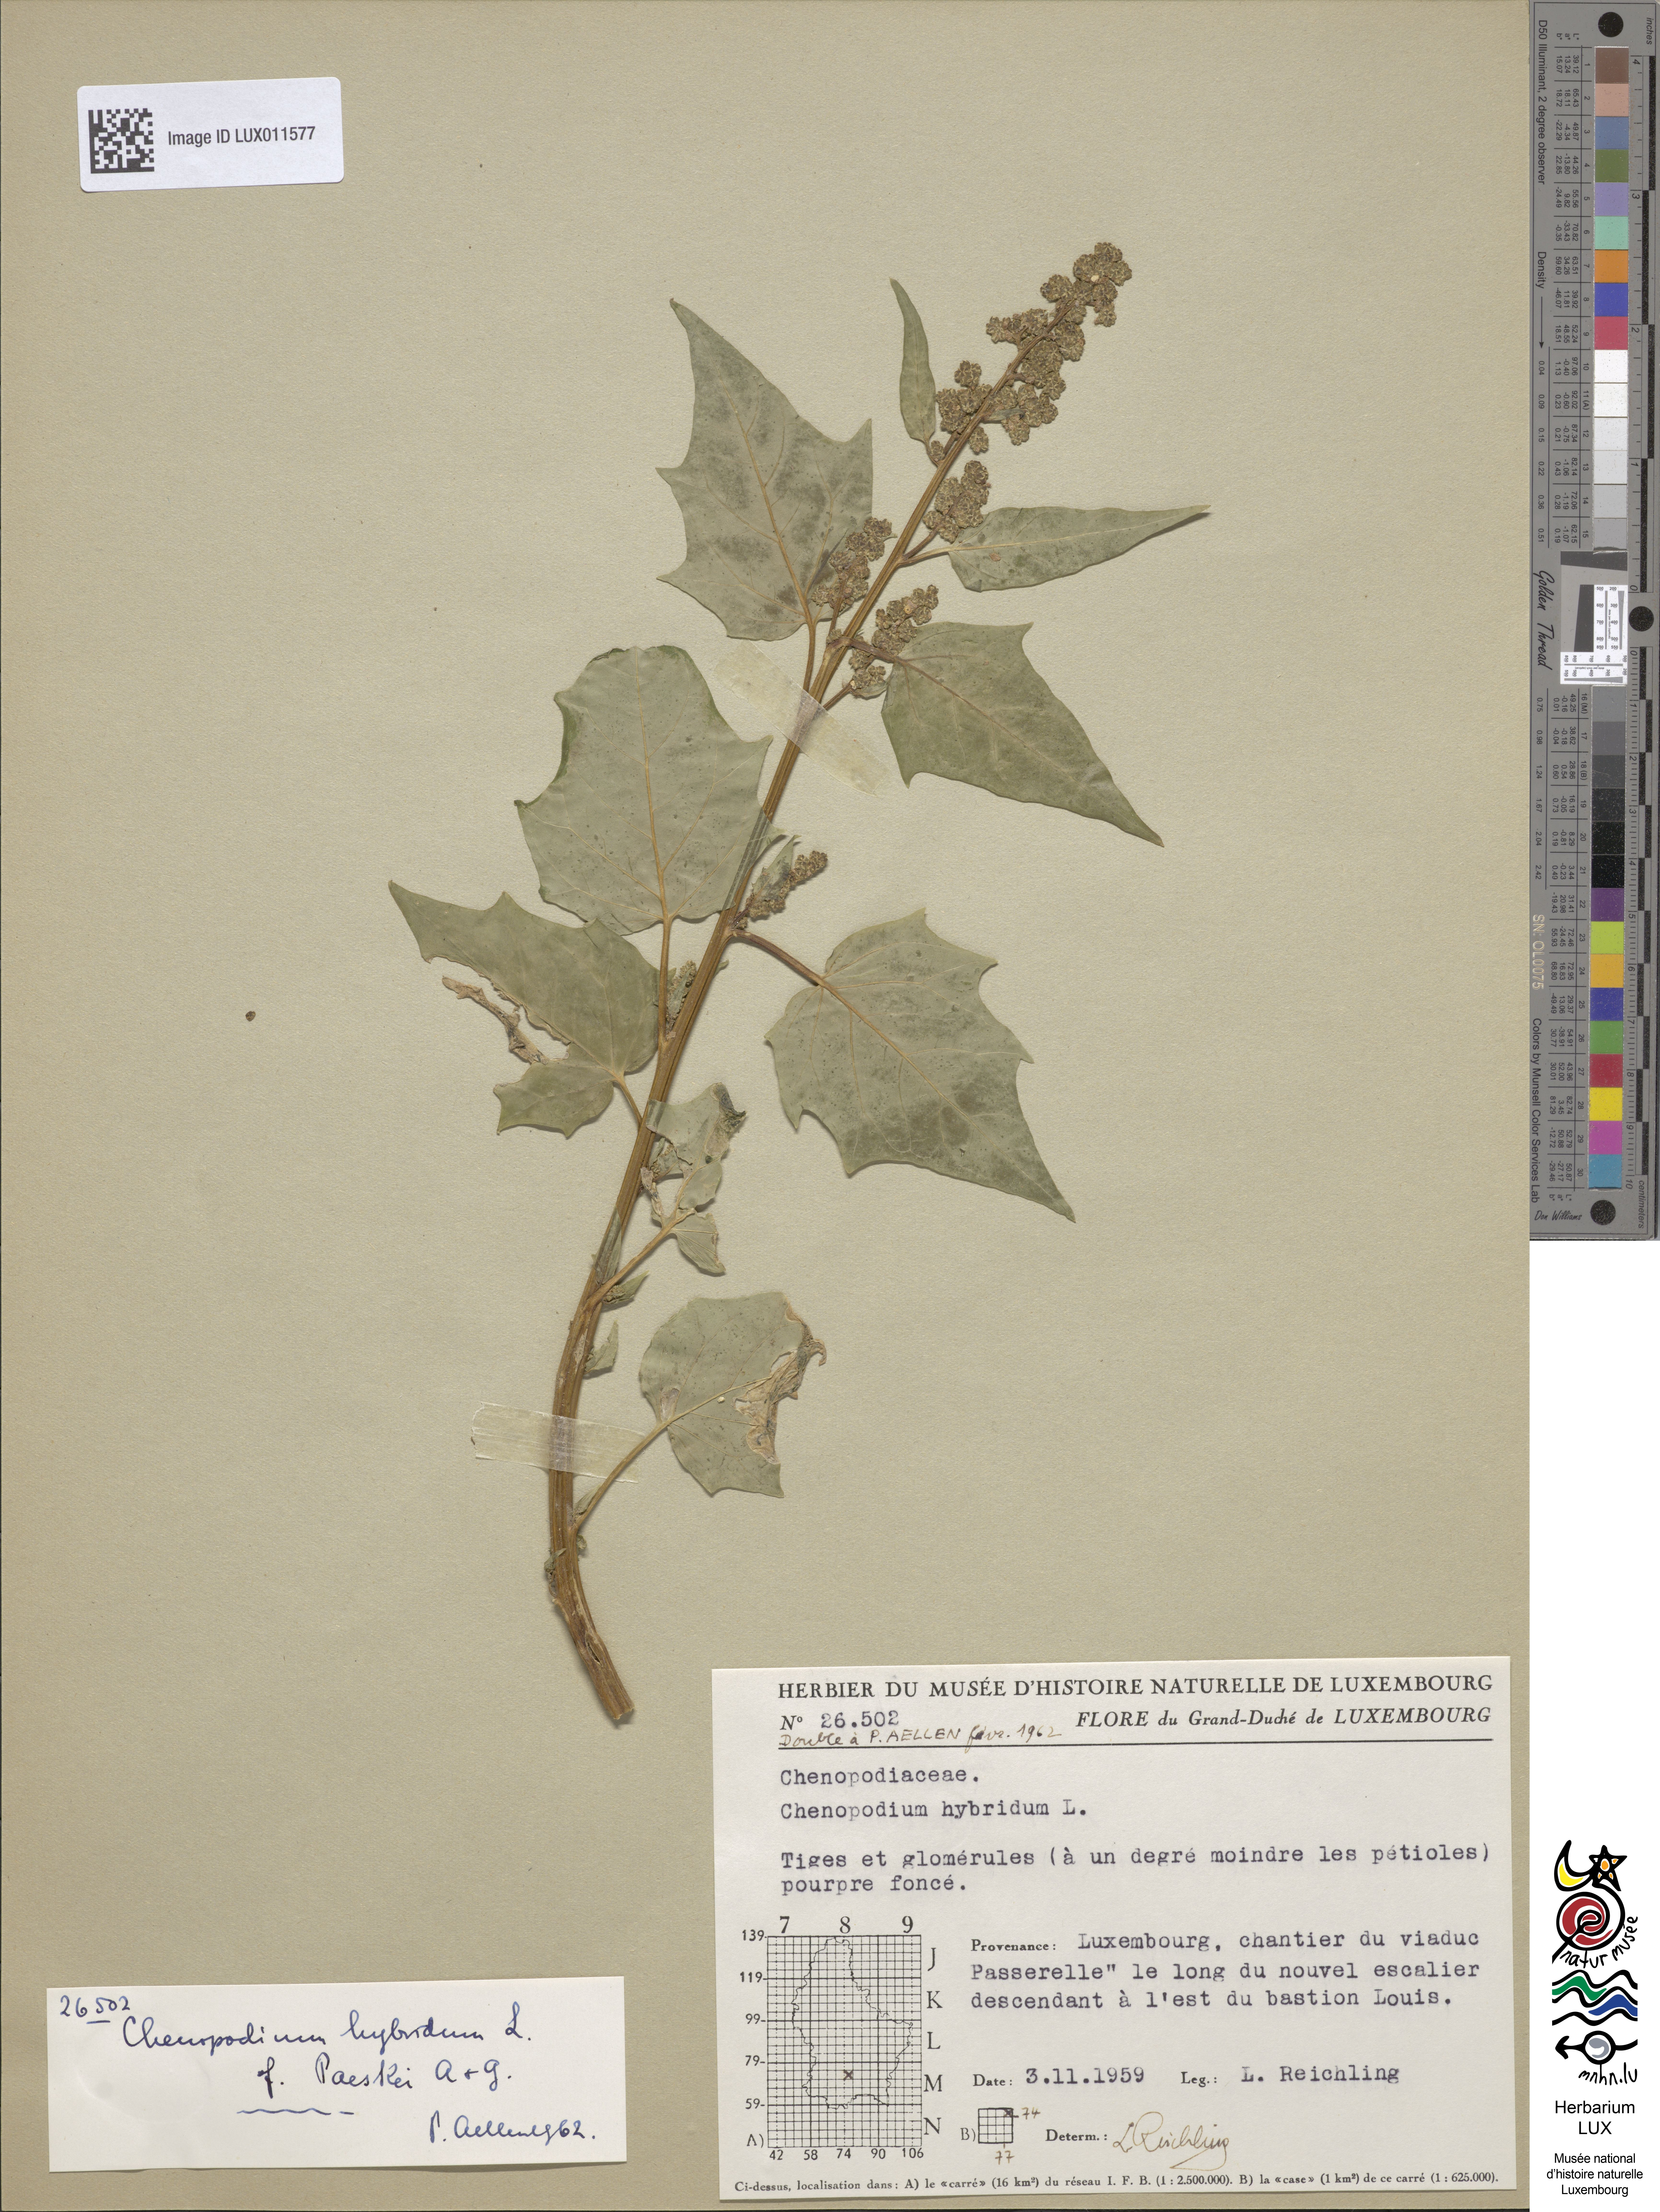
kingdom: Plantae
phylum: Tracheophyta
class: Magnoliopsida
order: Caryophyllales
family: Amaranthaceae
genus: Chenopodiastrum
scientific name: Chenopodiastrum hybridum
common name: Mapleleaf goosefoot
